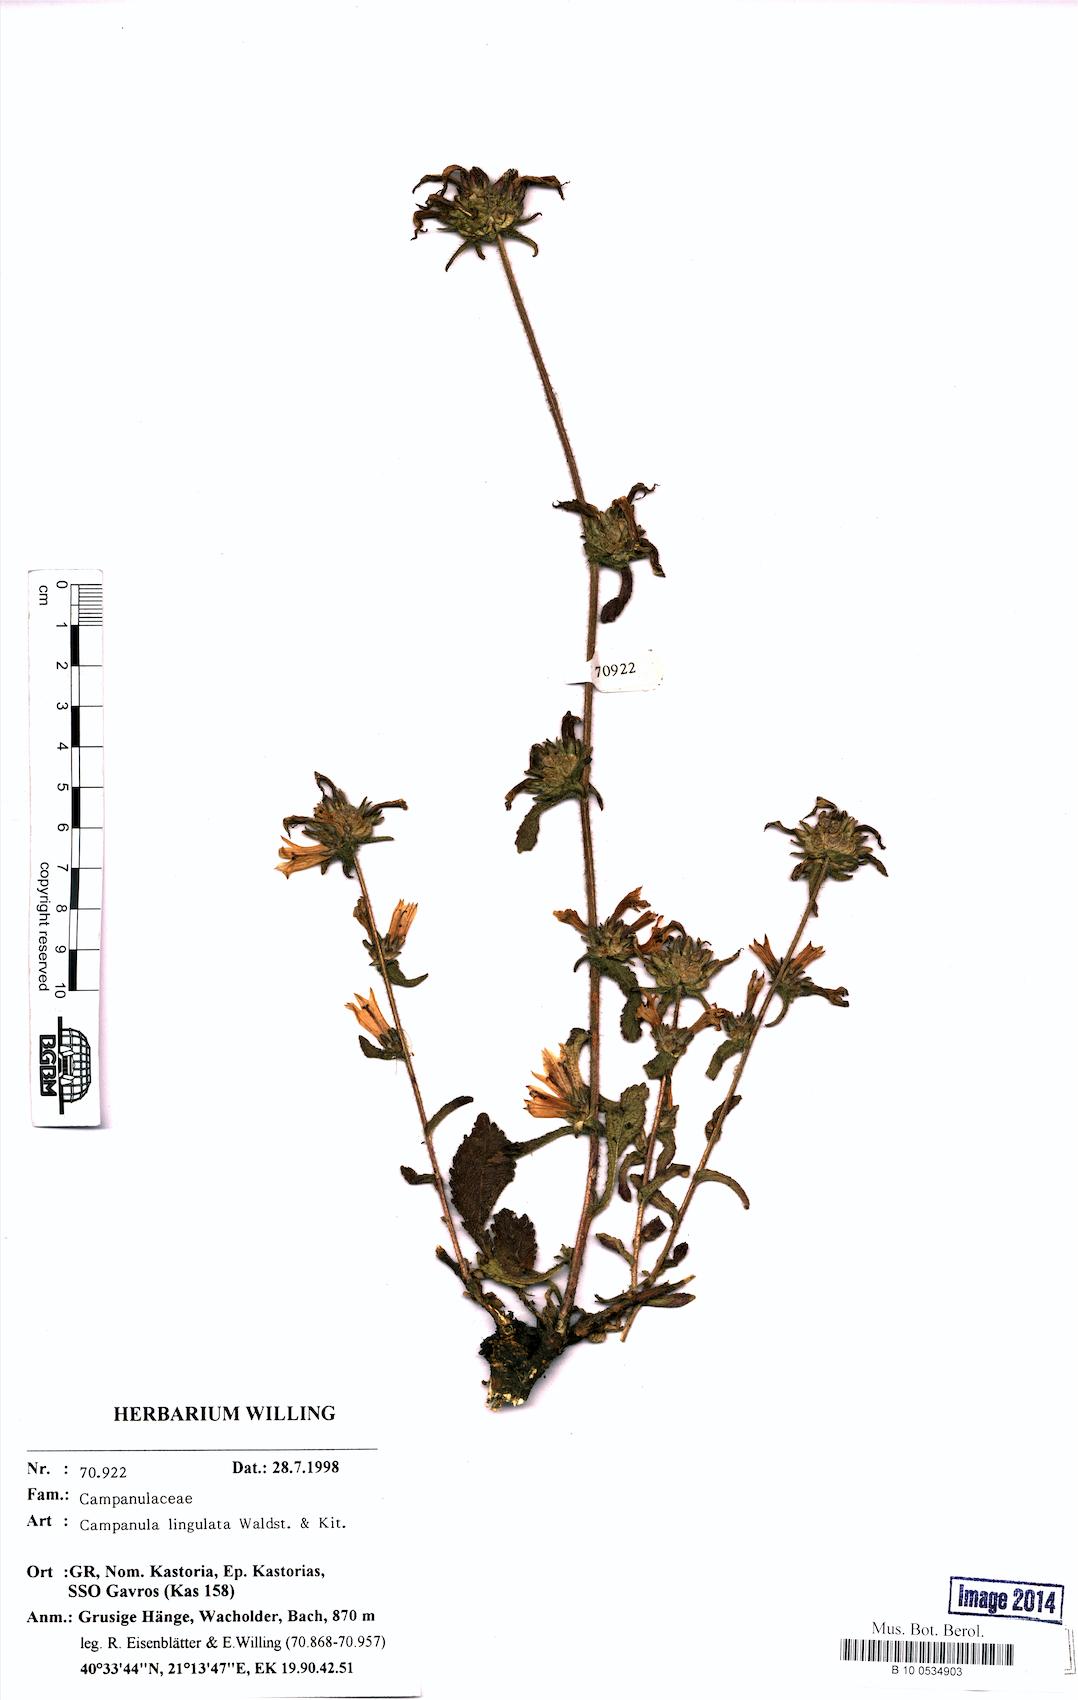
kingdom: Plantae
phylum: Tracheophyta
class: Magnoliopsida
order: Asterales
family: Campanulaceae
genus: Campanula
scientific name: Campanula lingulata
